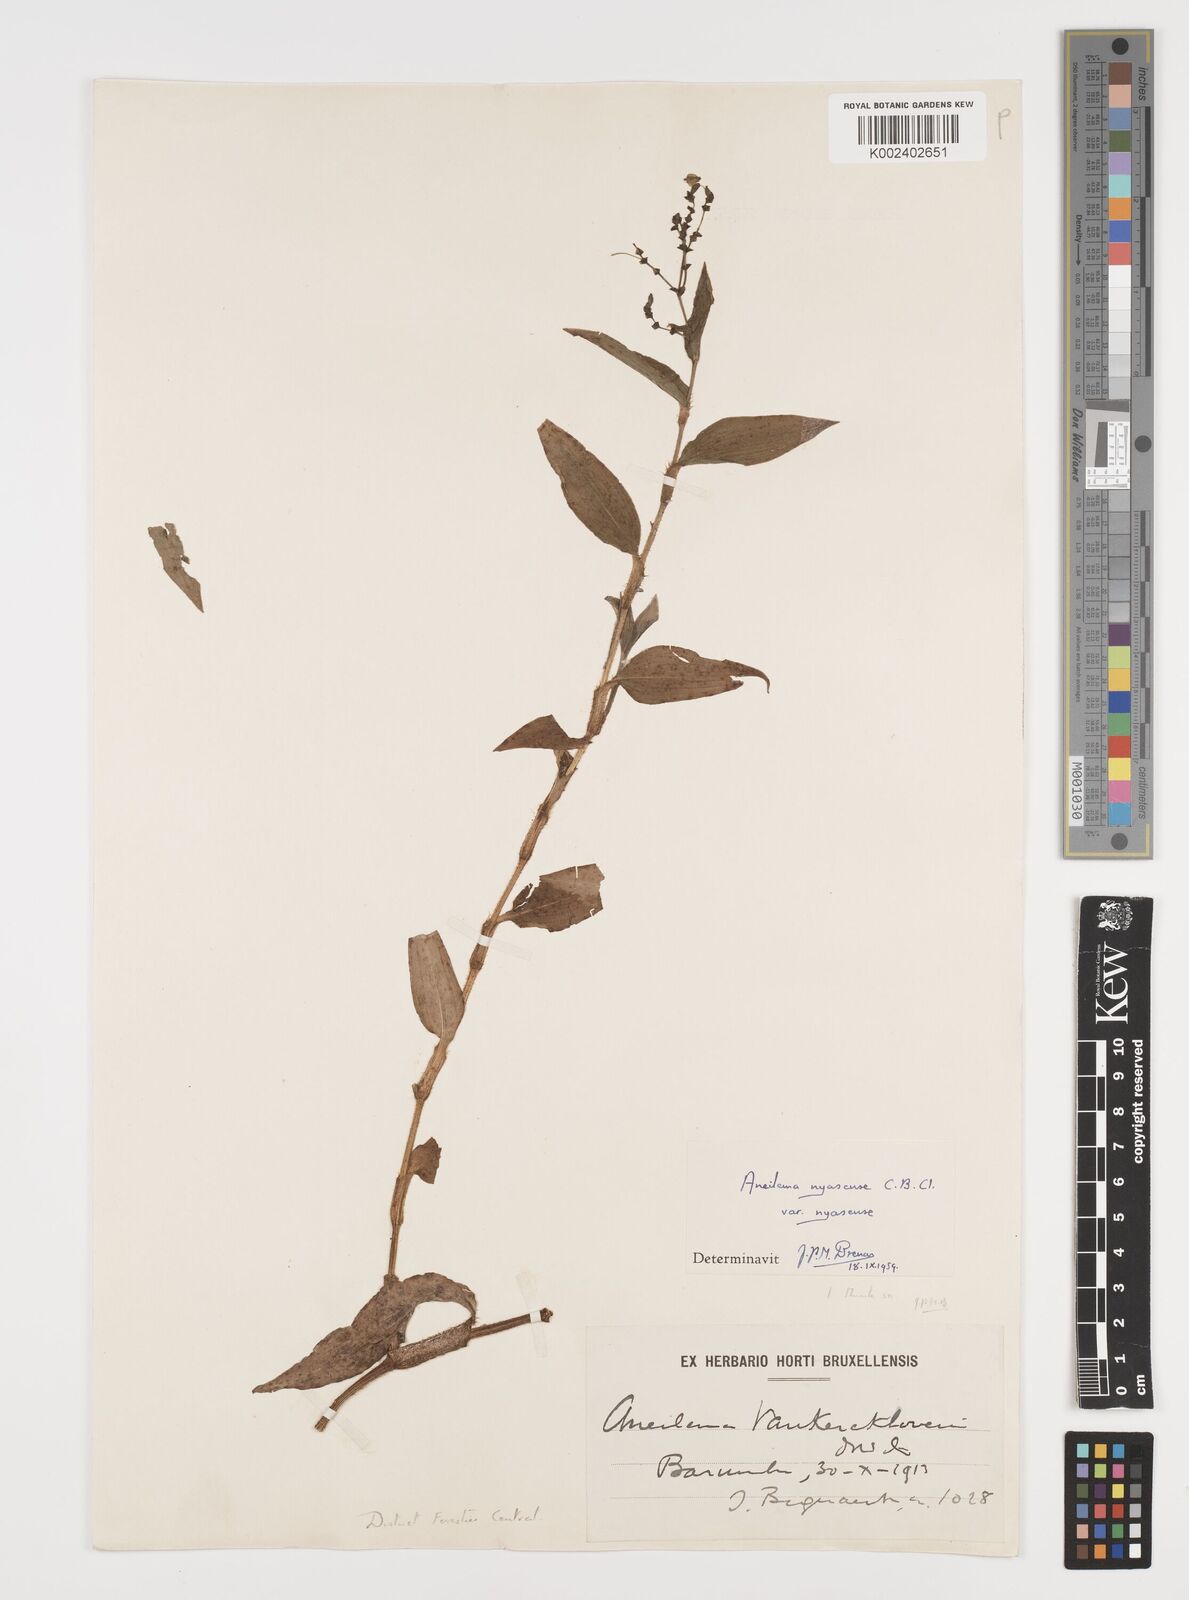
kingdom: Plantae
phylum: Tracheophyta
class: Liliopsida
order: Commelinales
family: Commelinaceae
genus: Aneilema
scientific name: Aneilema nyasense
